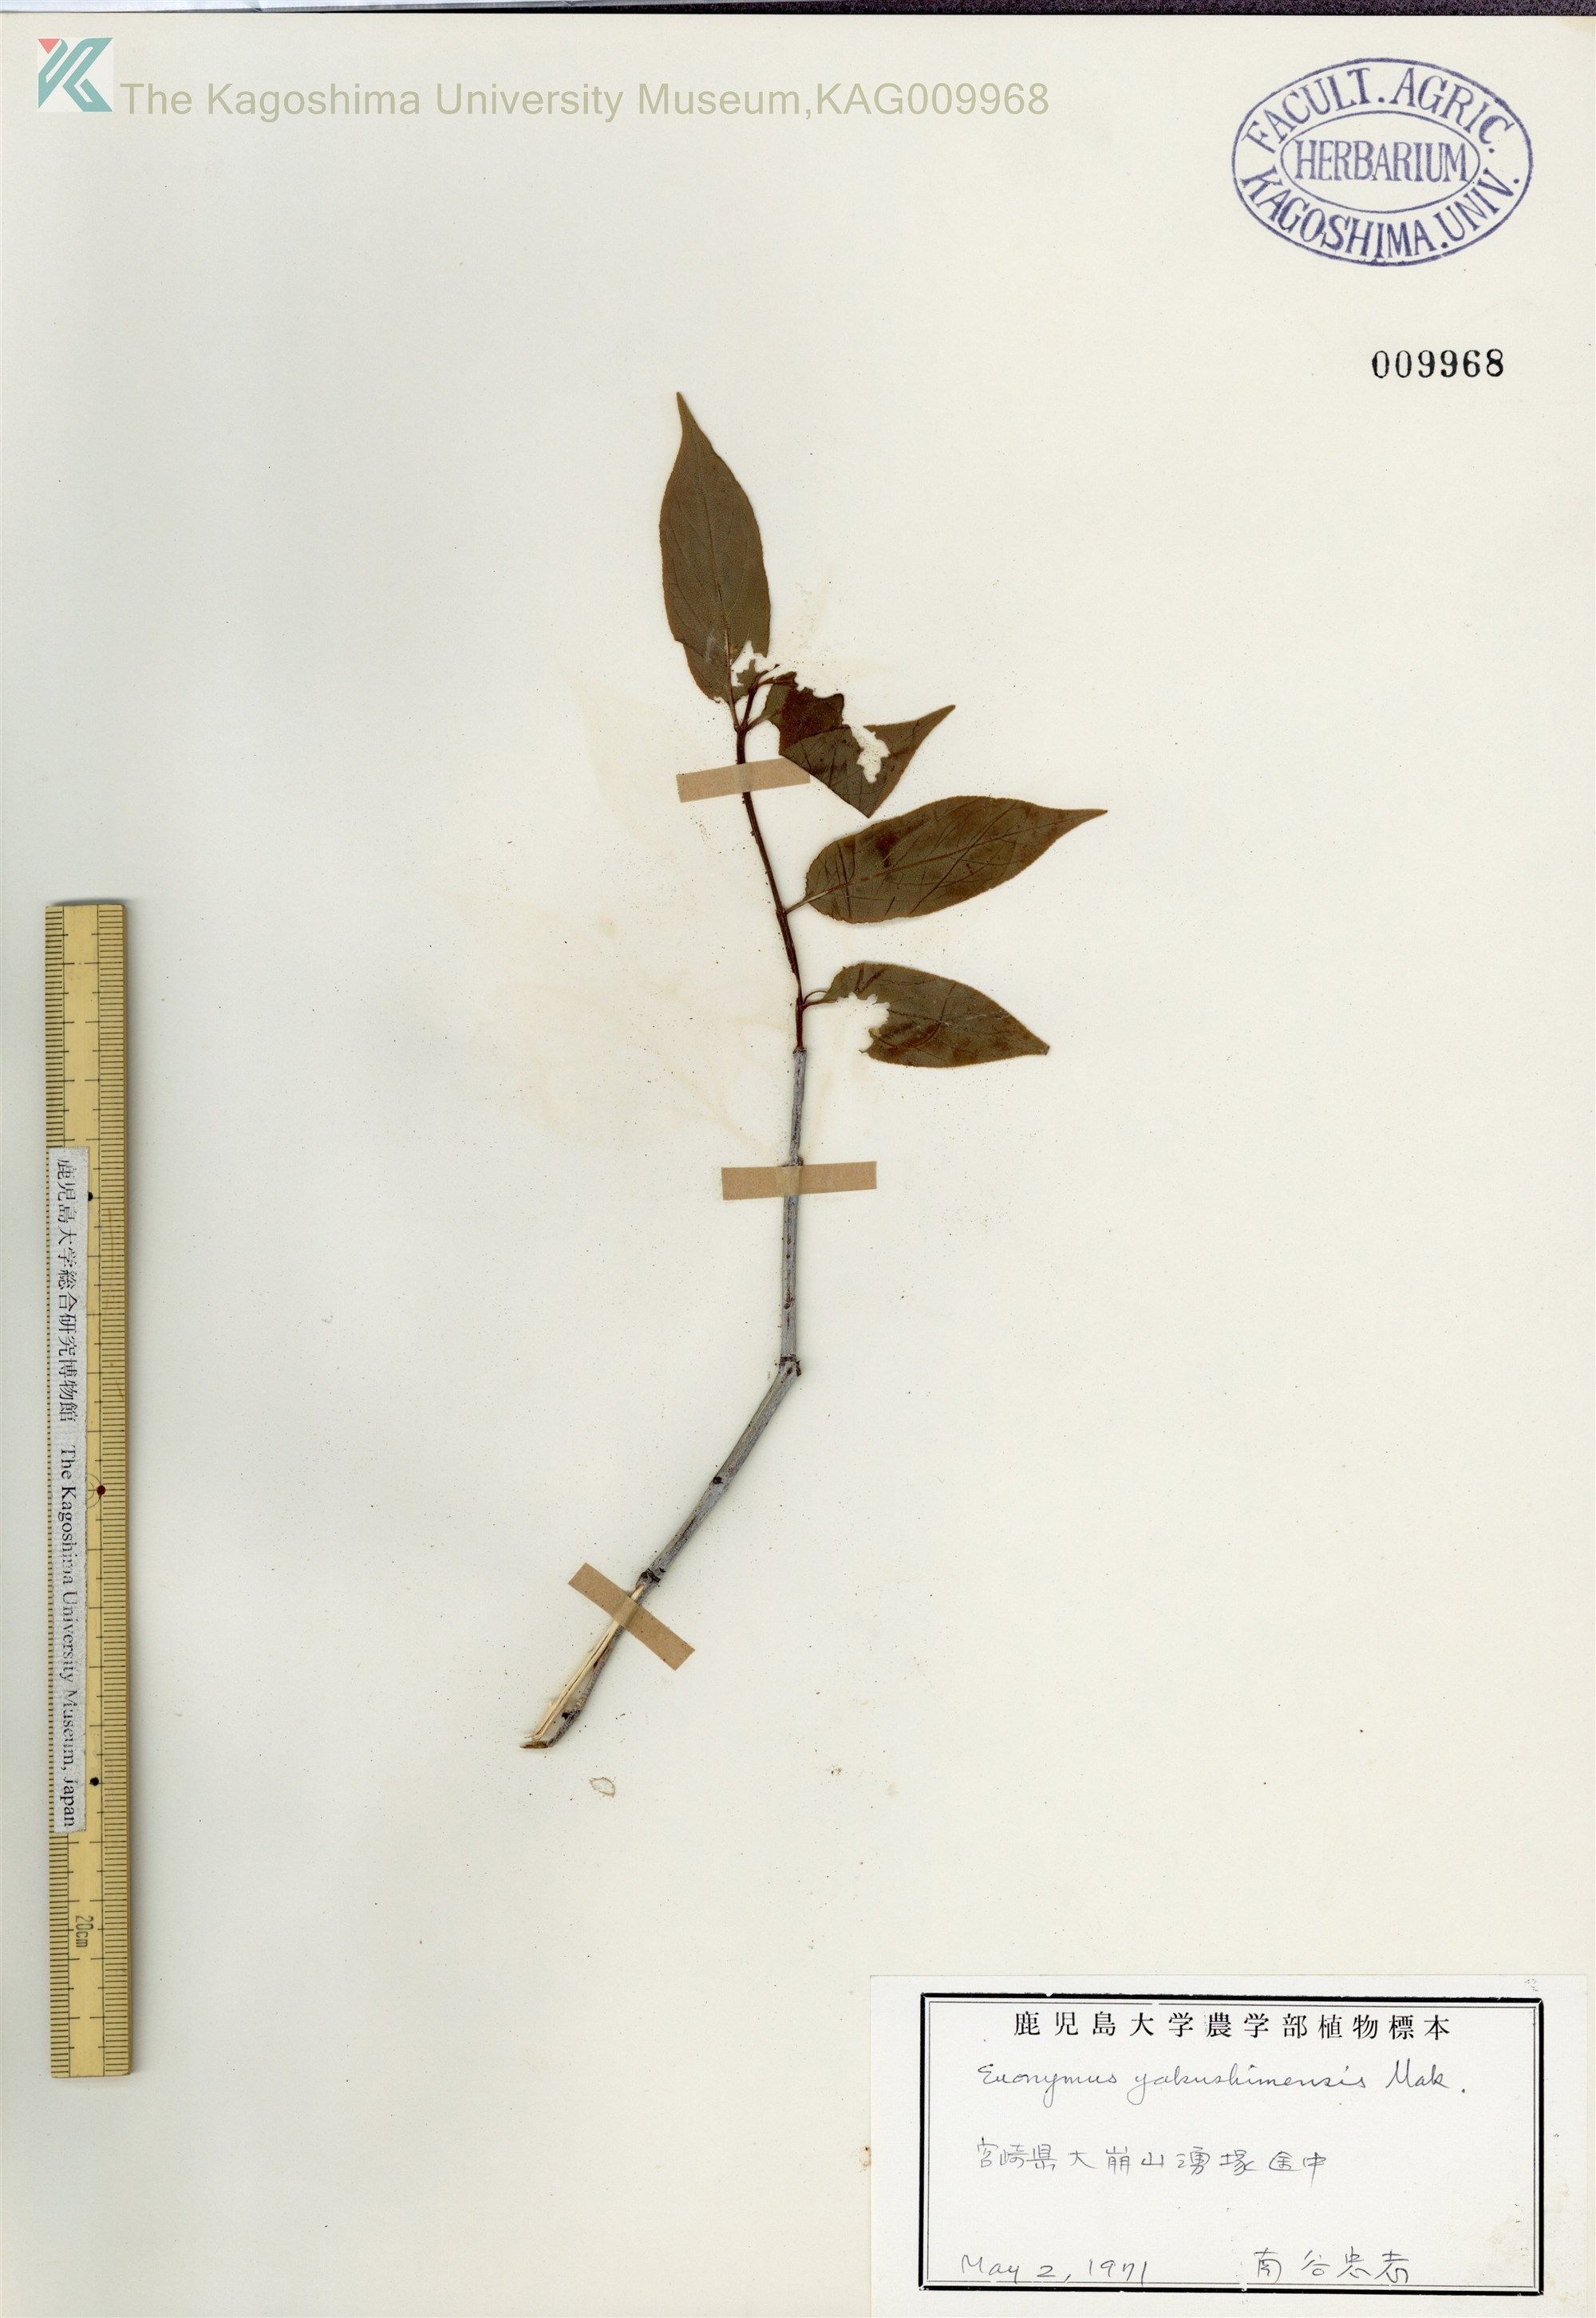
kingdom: Plantae
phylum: Tracheophyta
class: Magnoliopsida
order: Celastrales
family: Celastraceae
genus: Euonymus
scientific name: Euonymus yakushimensis
